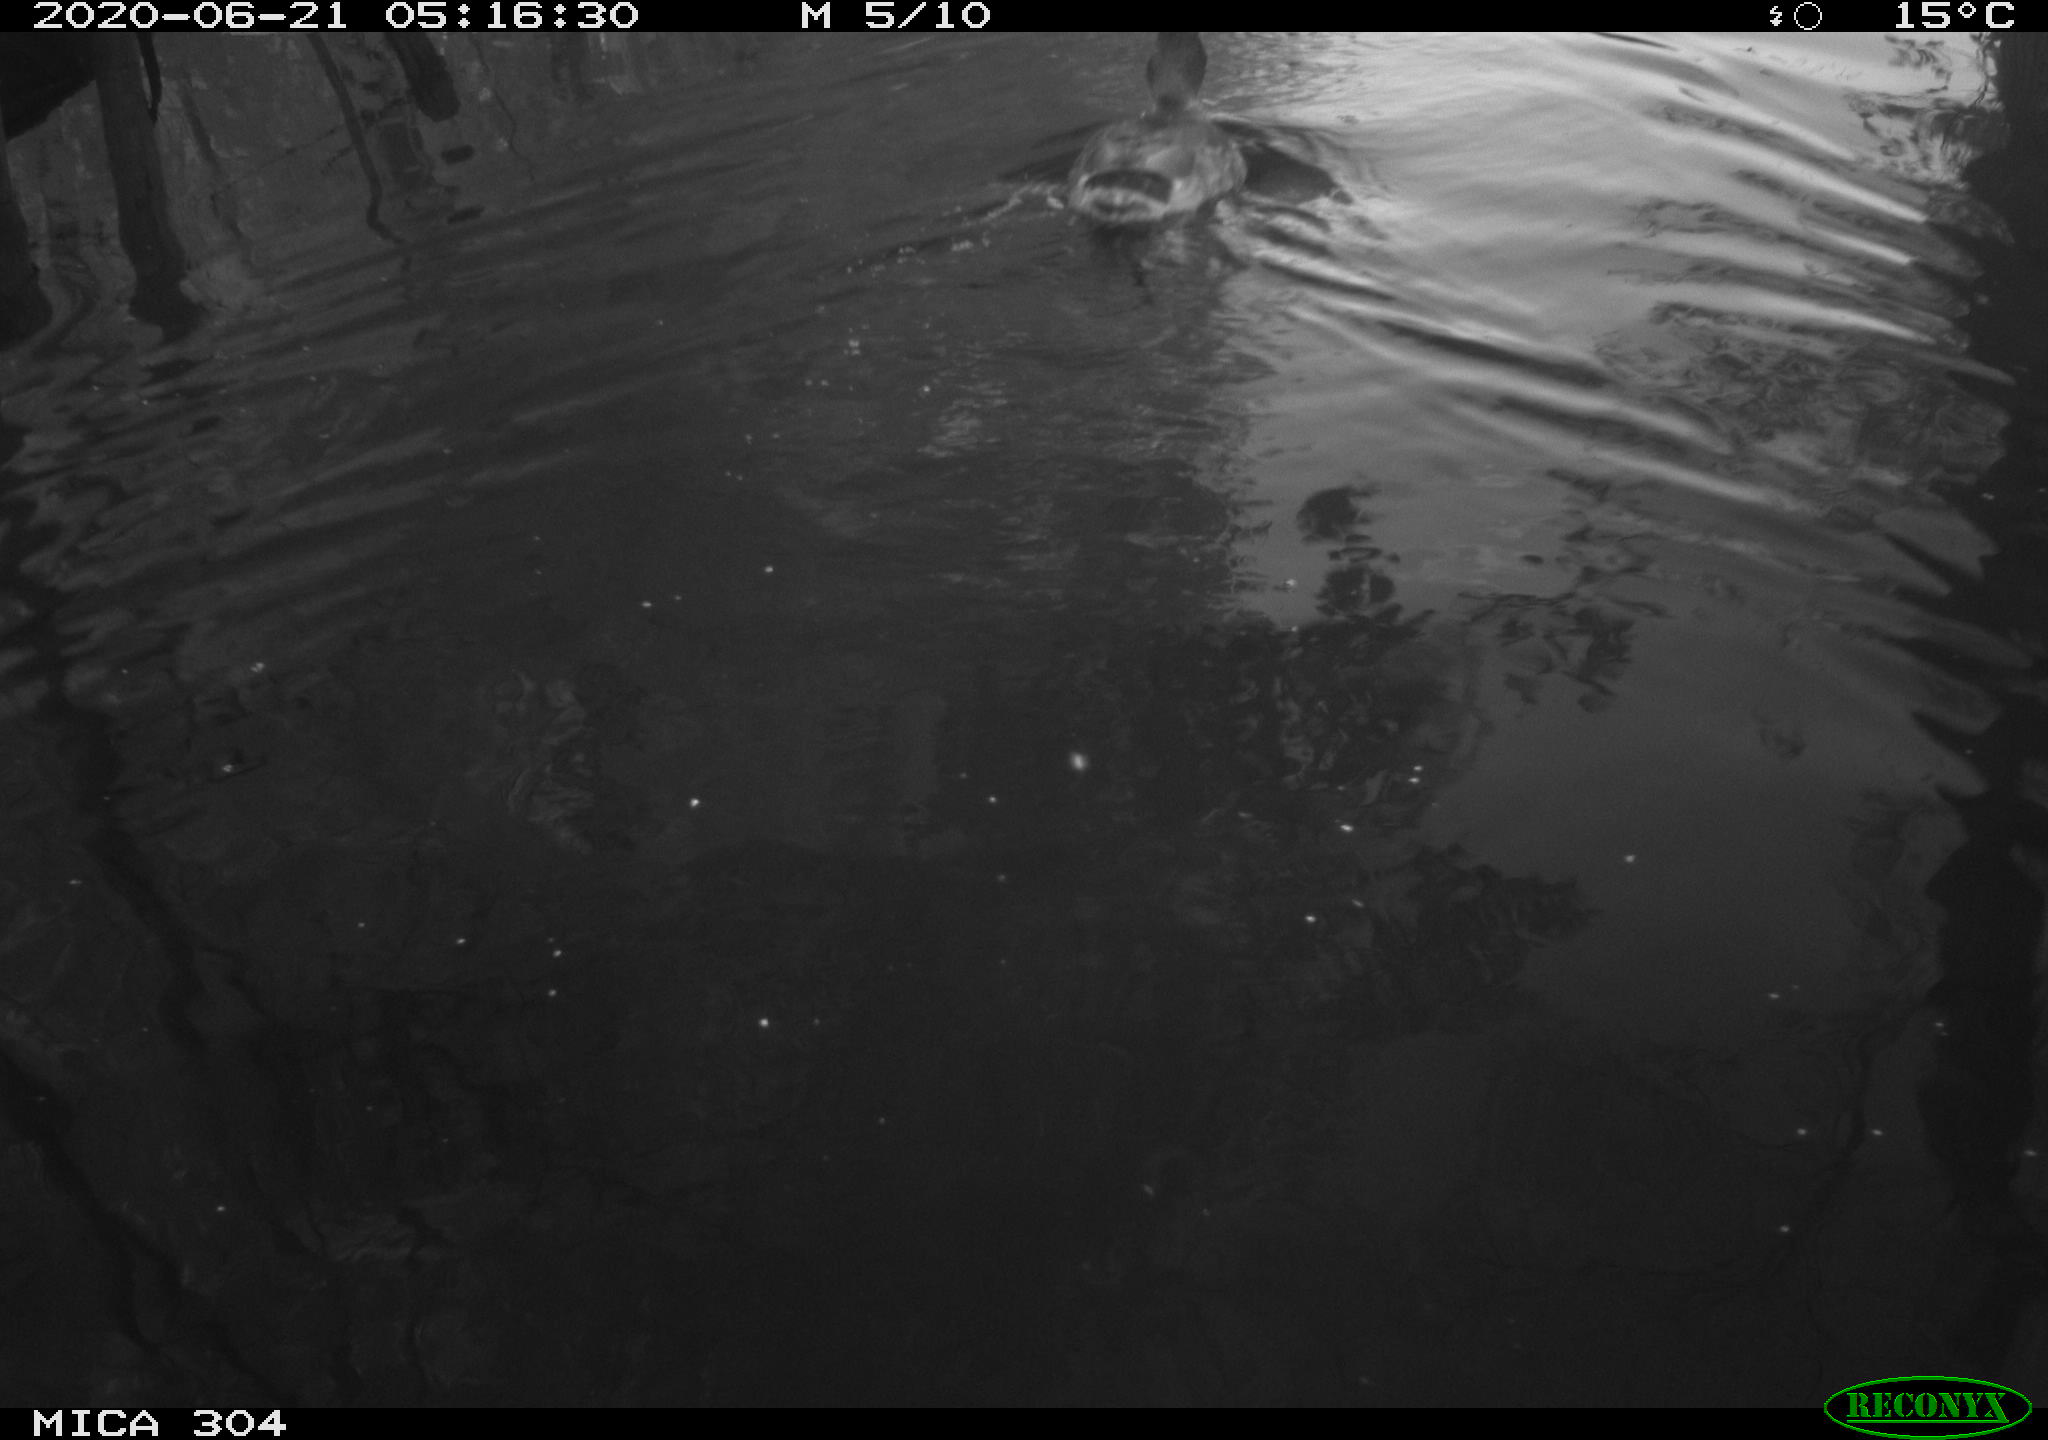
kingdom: Animalia
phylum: Chordata
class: Aves
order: Anseriformes
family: Anatidae
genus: Anas
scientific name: Anas platyrhynchos
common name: Mallard
